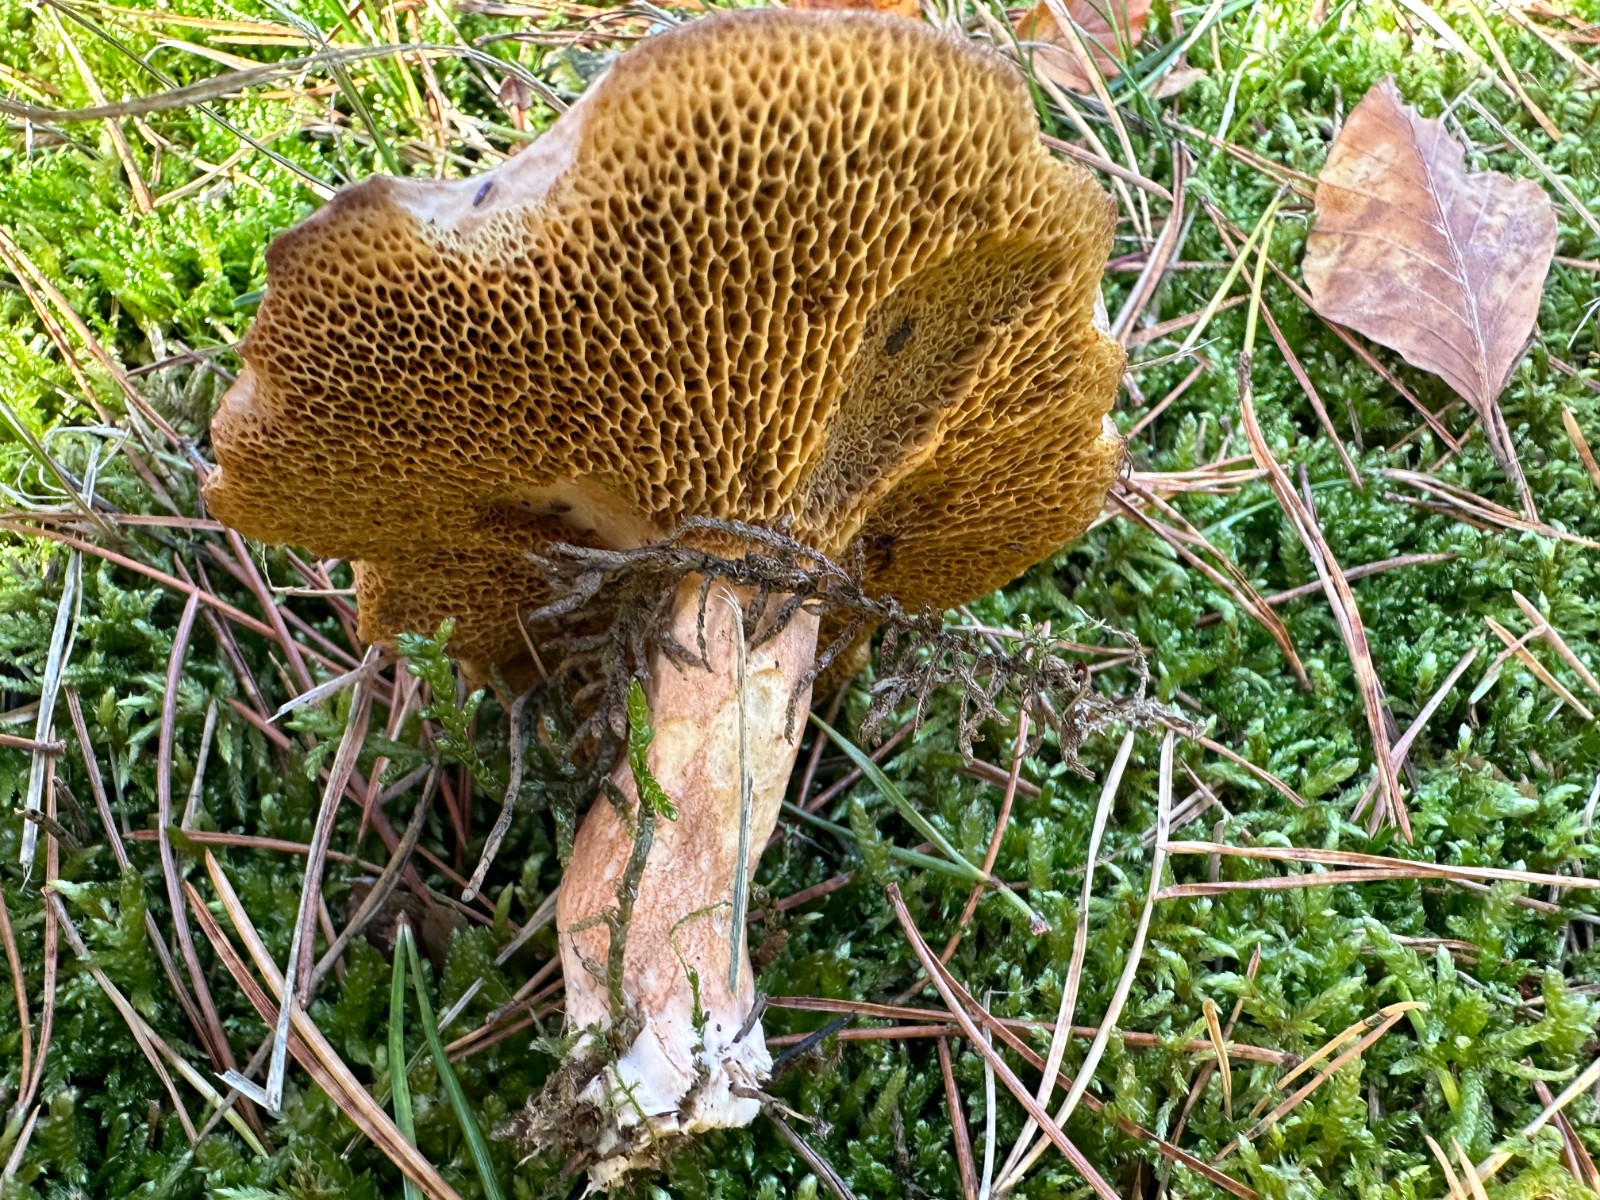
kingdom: Fungi
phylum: Basidiomycota
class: Agaricomycetes
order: Boletales
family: Suillaceae
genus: Suillus
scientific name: Suillus bovinus
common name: grovporet slimrørhat
